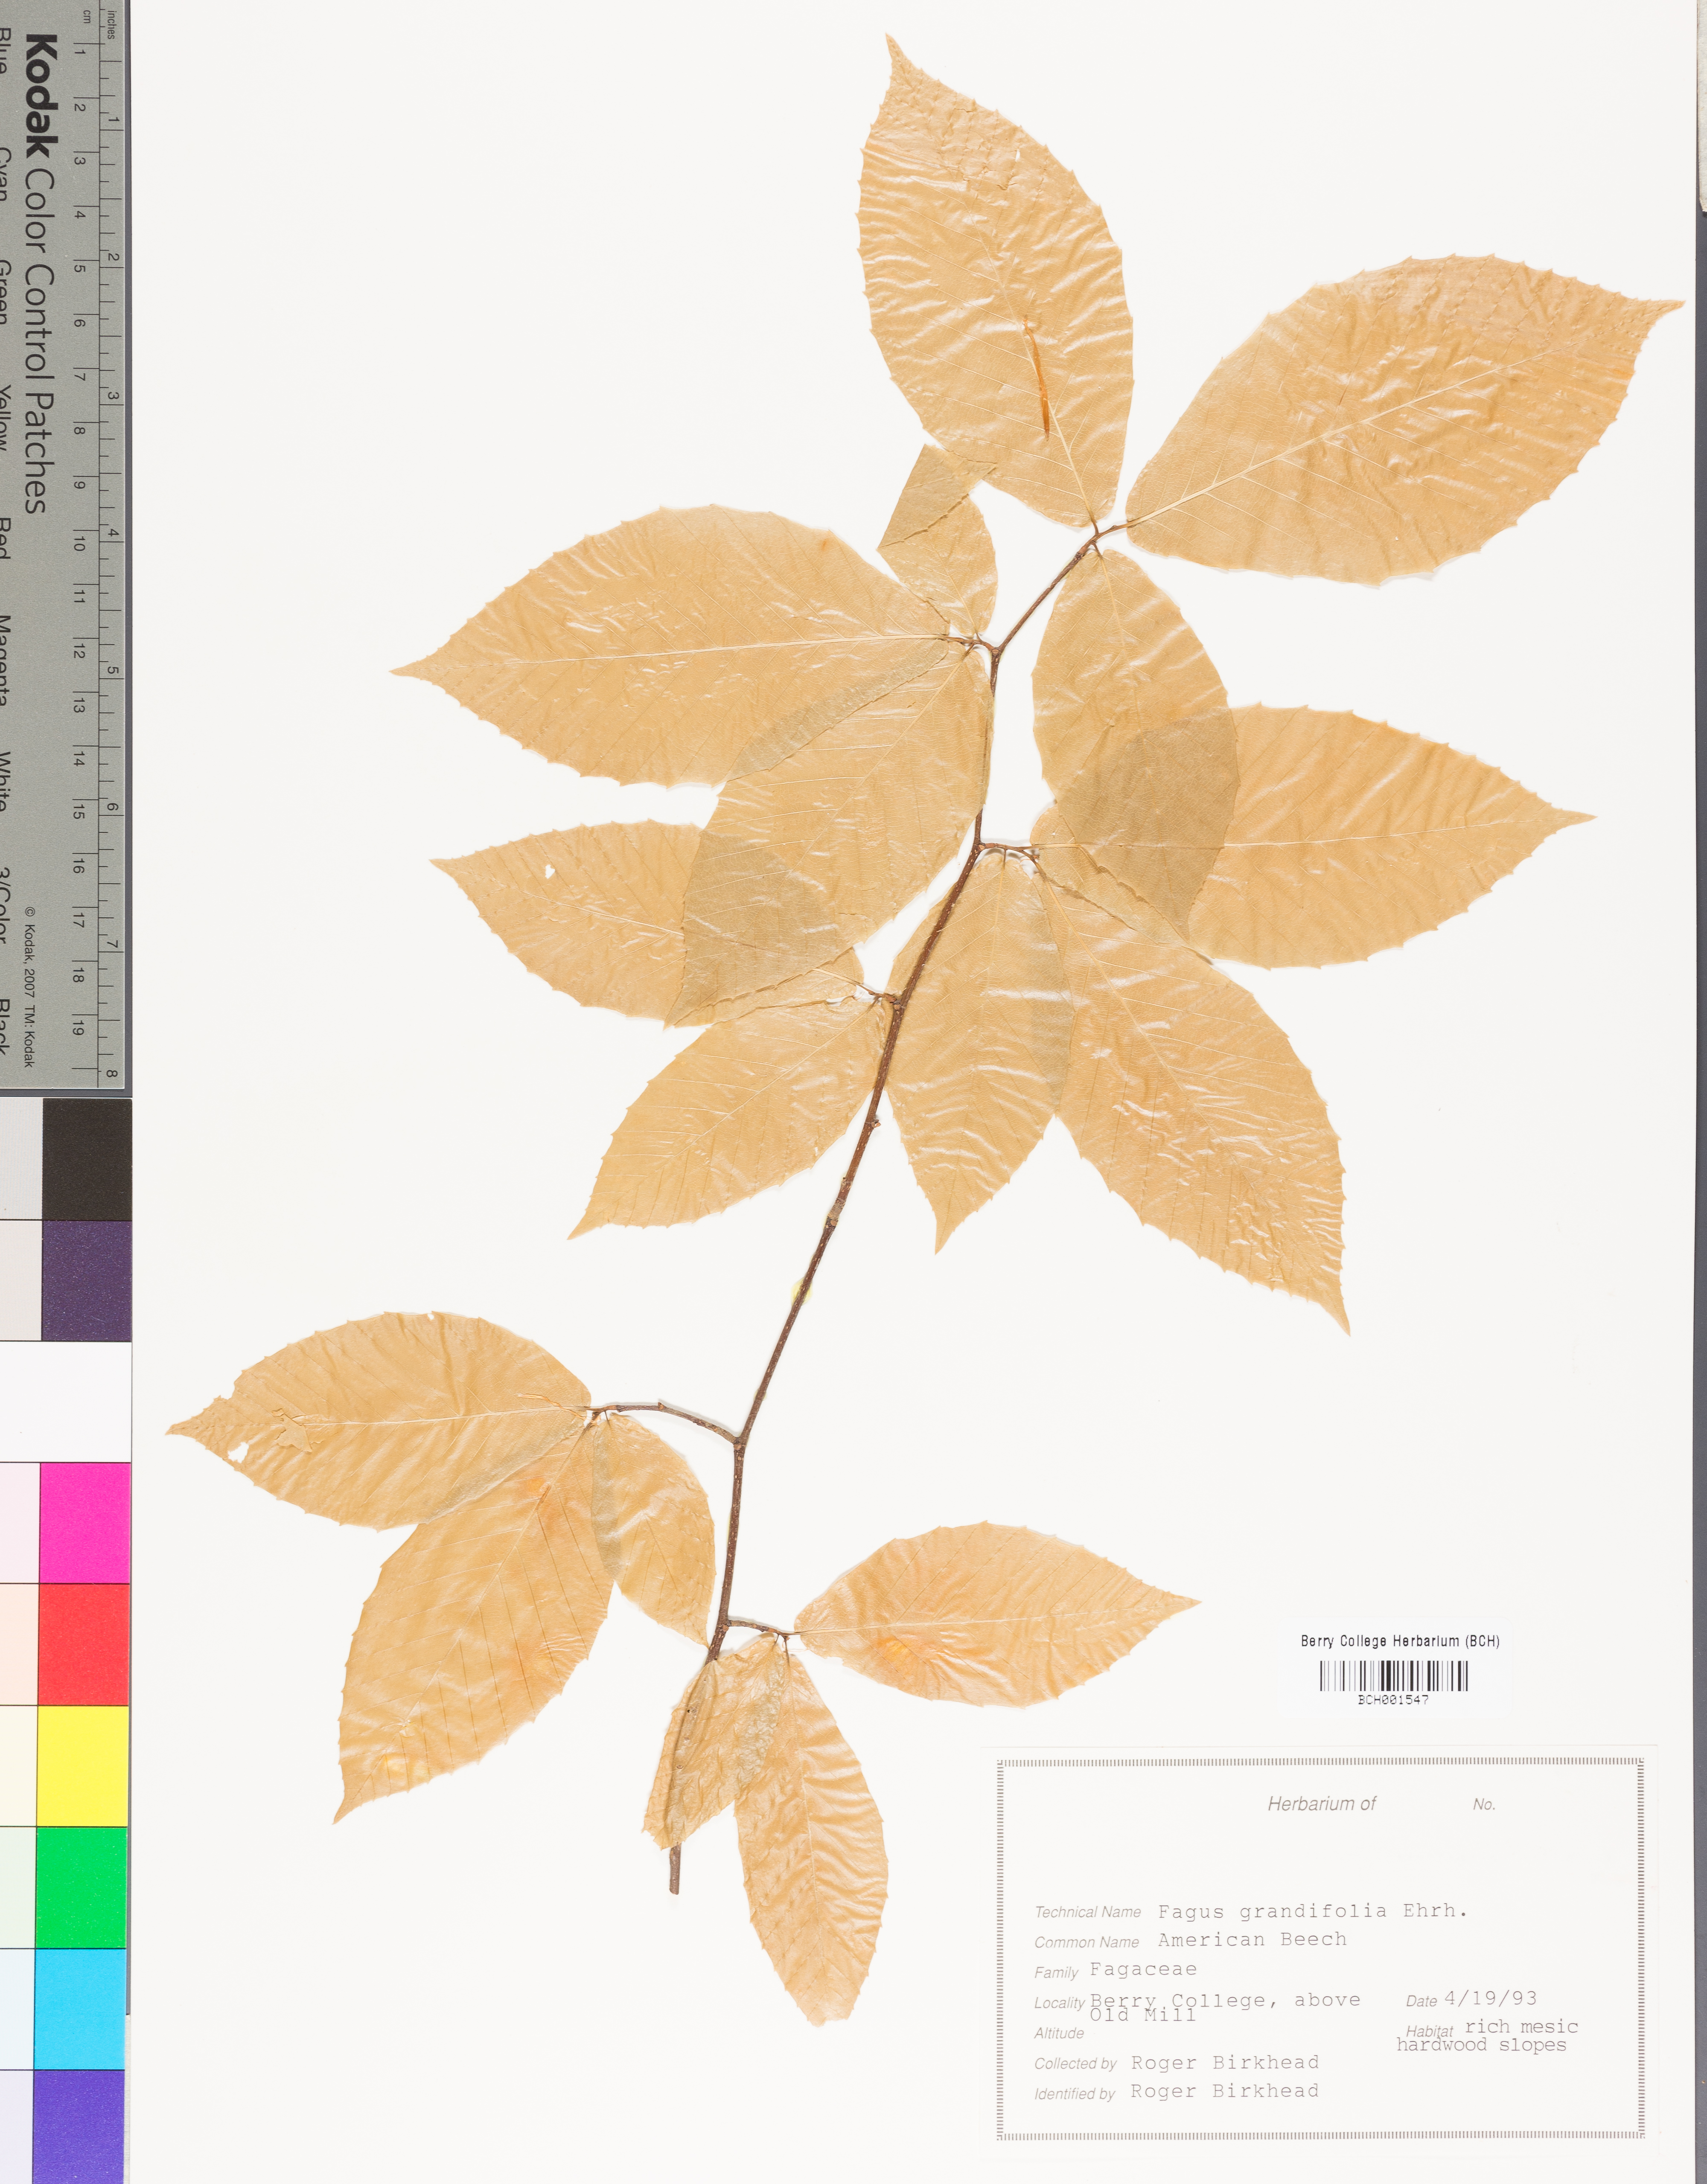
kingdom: Plantae
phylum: Tracheophyta
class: Magnoliopsida
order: Fagales
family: Fagaceae
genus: Fagus
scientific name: Fagus grandifolia
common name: American beech
